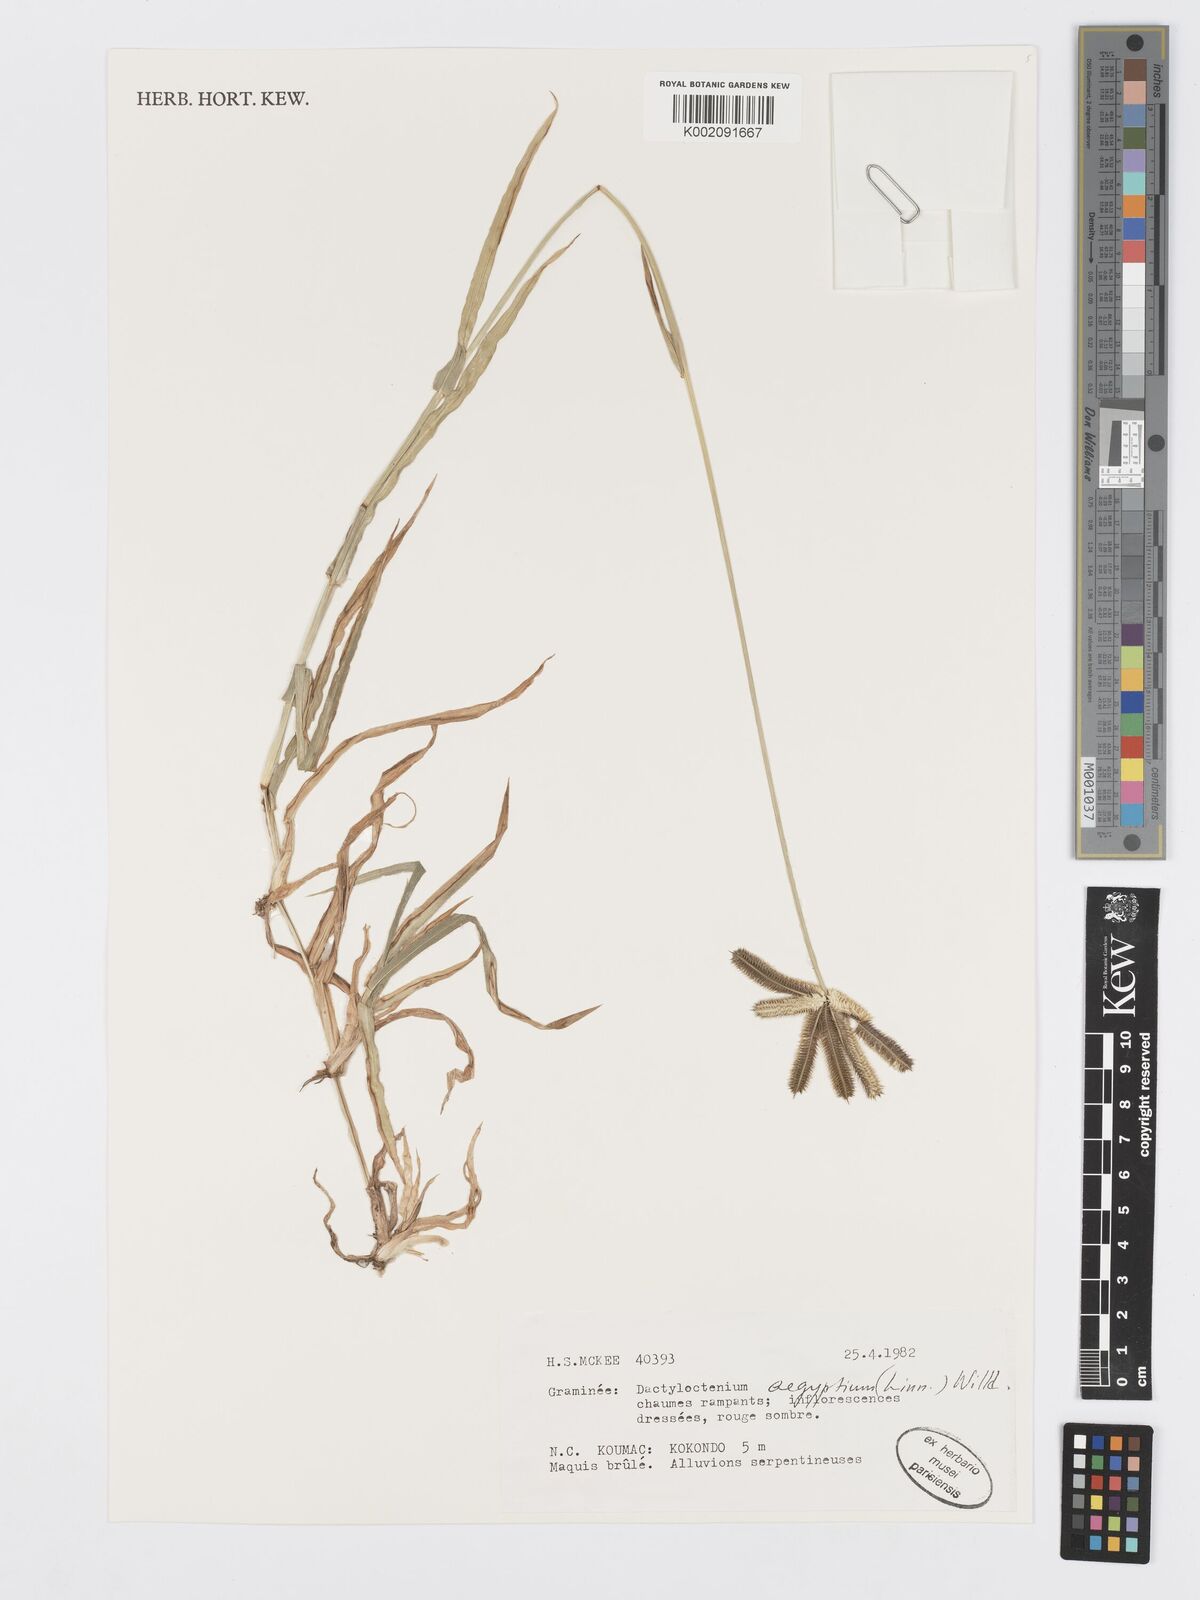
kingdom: Plantae
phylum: Tracheophyta
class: Liliopsida
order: Poales
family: Poaceae
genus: Dactyloctenium
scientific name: Dactyloctenium aegyptium
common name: Egyptian grass
